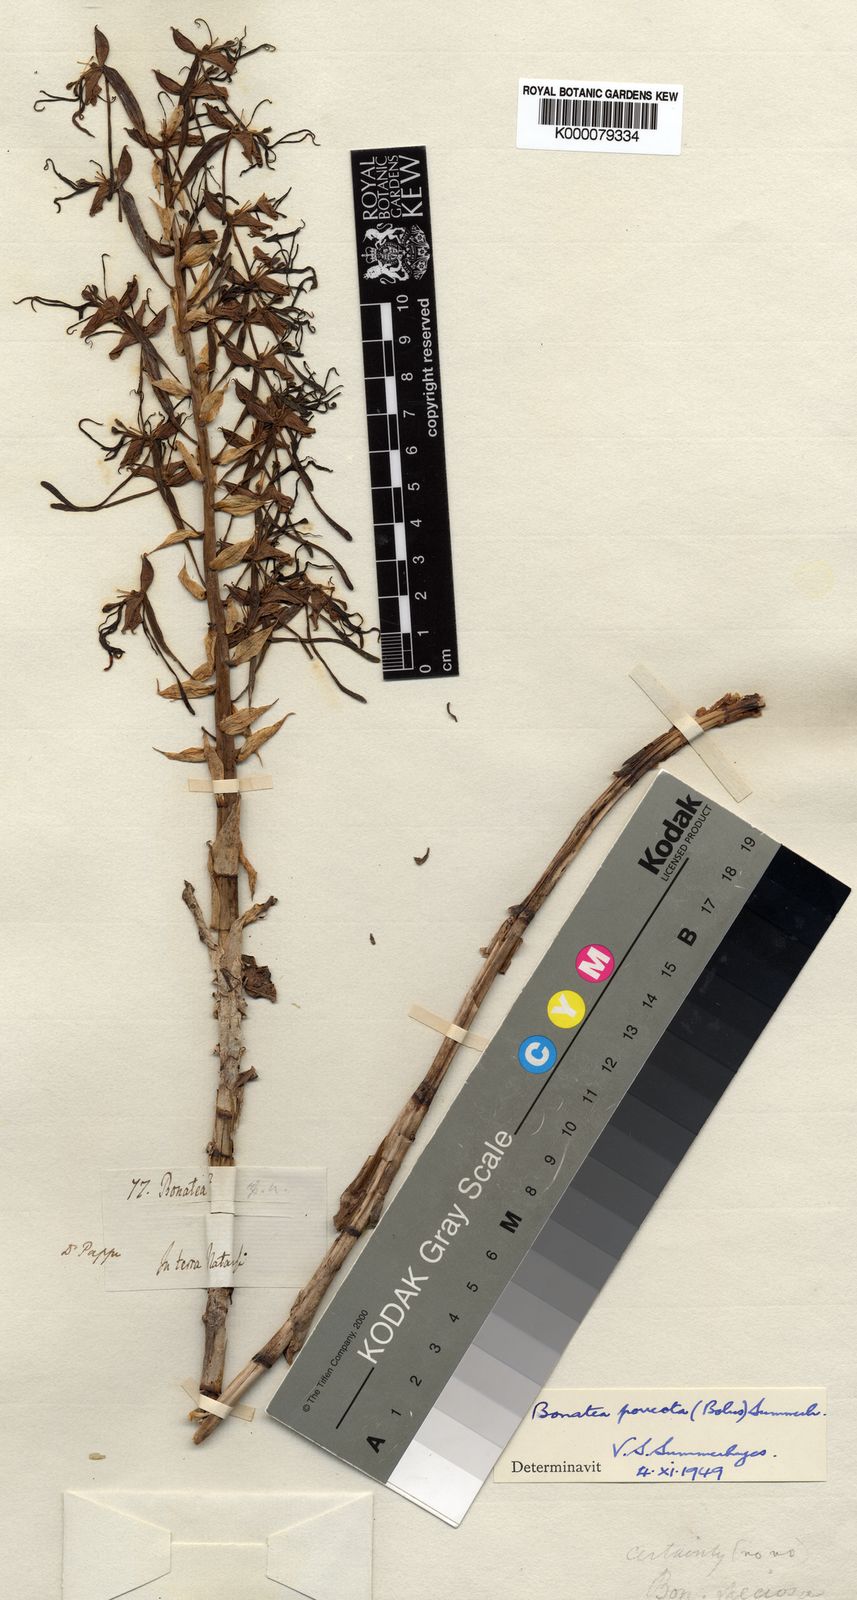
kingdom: Plantae
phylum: Tracheophyta
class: Liliopsida
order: Asparagales
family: Orchidaceae
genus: Bonatea
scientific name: Bonatea porrecta
